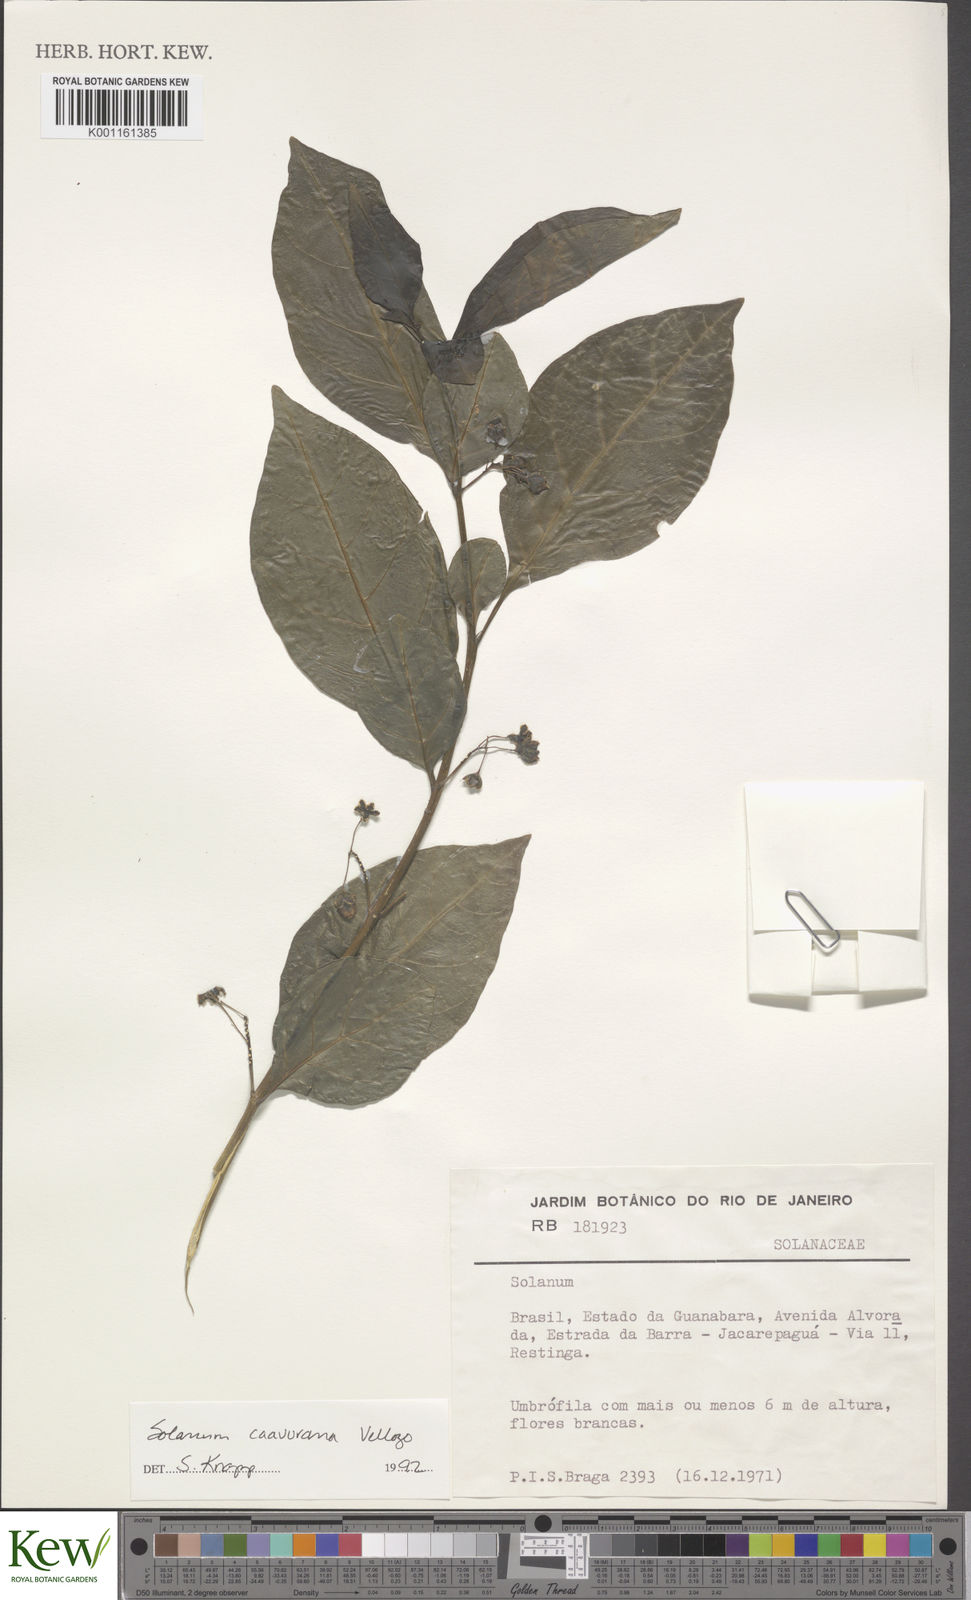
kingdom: Plantae
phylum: Tracheophyta
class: Magnoliopsida
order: Solanales
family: Solanaceae
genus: Solanum
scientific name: Solanum caavurana
